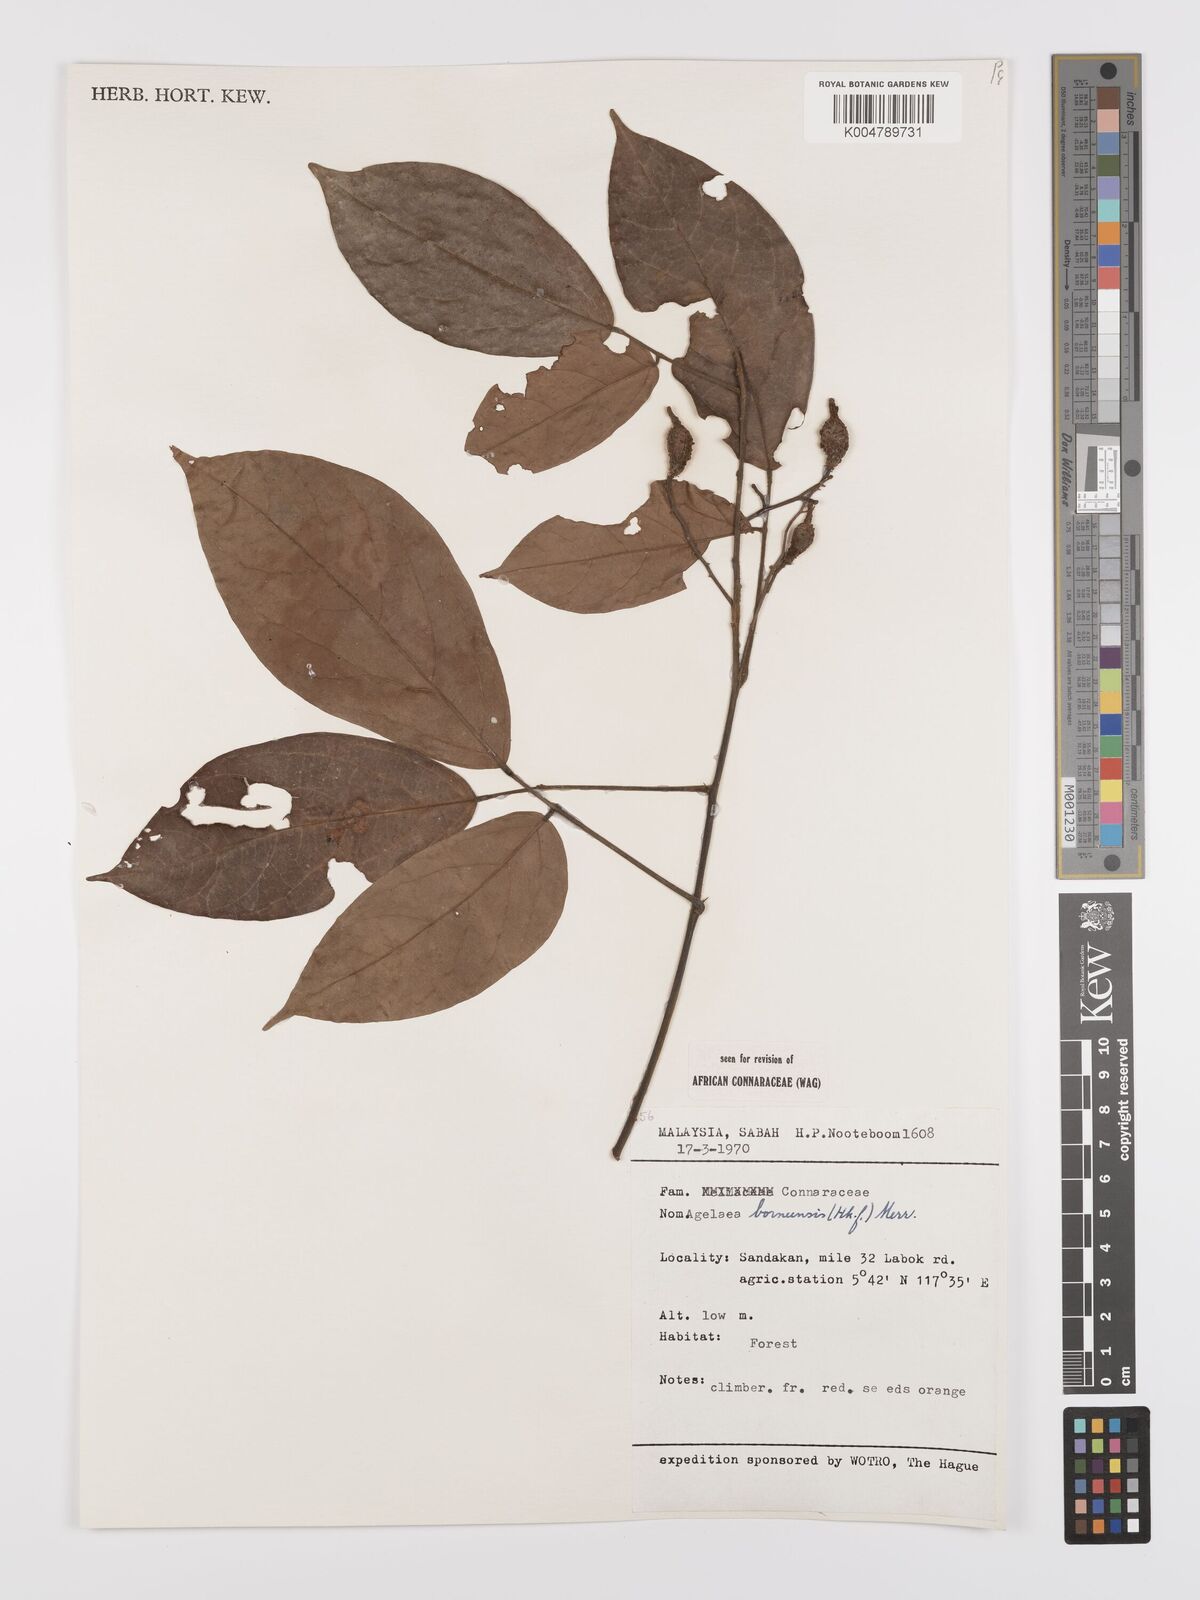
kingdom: Plantae
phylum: Tracheophyta
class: Magnoliopsida
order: Oxalidales
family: Connaraceae
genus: Agelaea
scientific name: Agelaea borneensis
